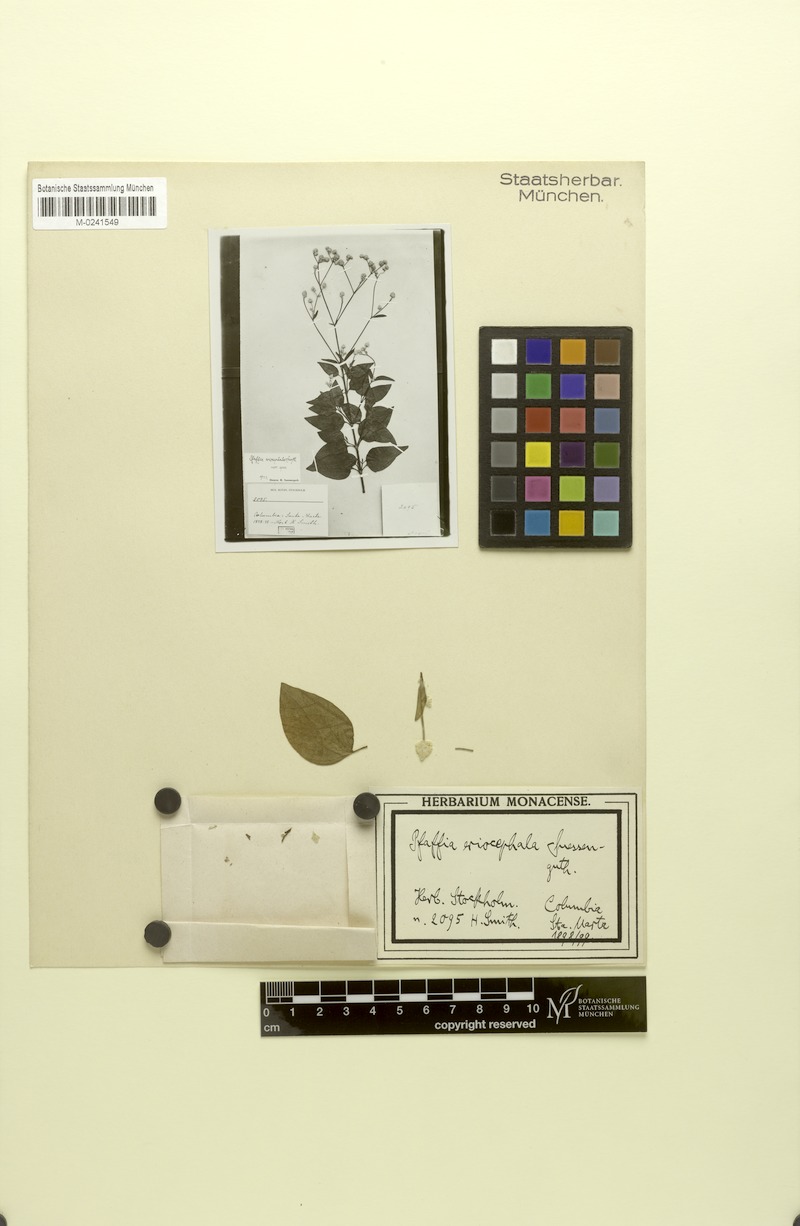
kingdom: Plantae
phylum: Tracheophyta
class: Magnoliopsida
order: Caryophyllales
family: Amaranthaceae
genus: Pfaffia
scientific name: Pfaffia eriocephala
